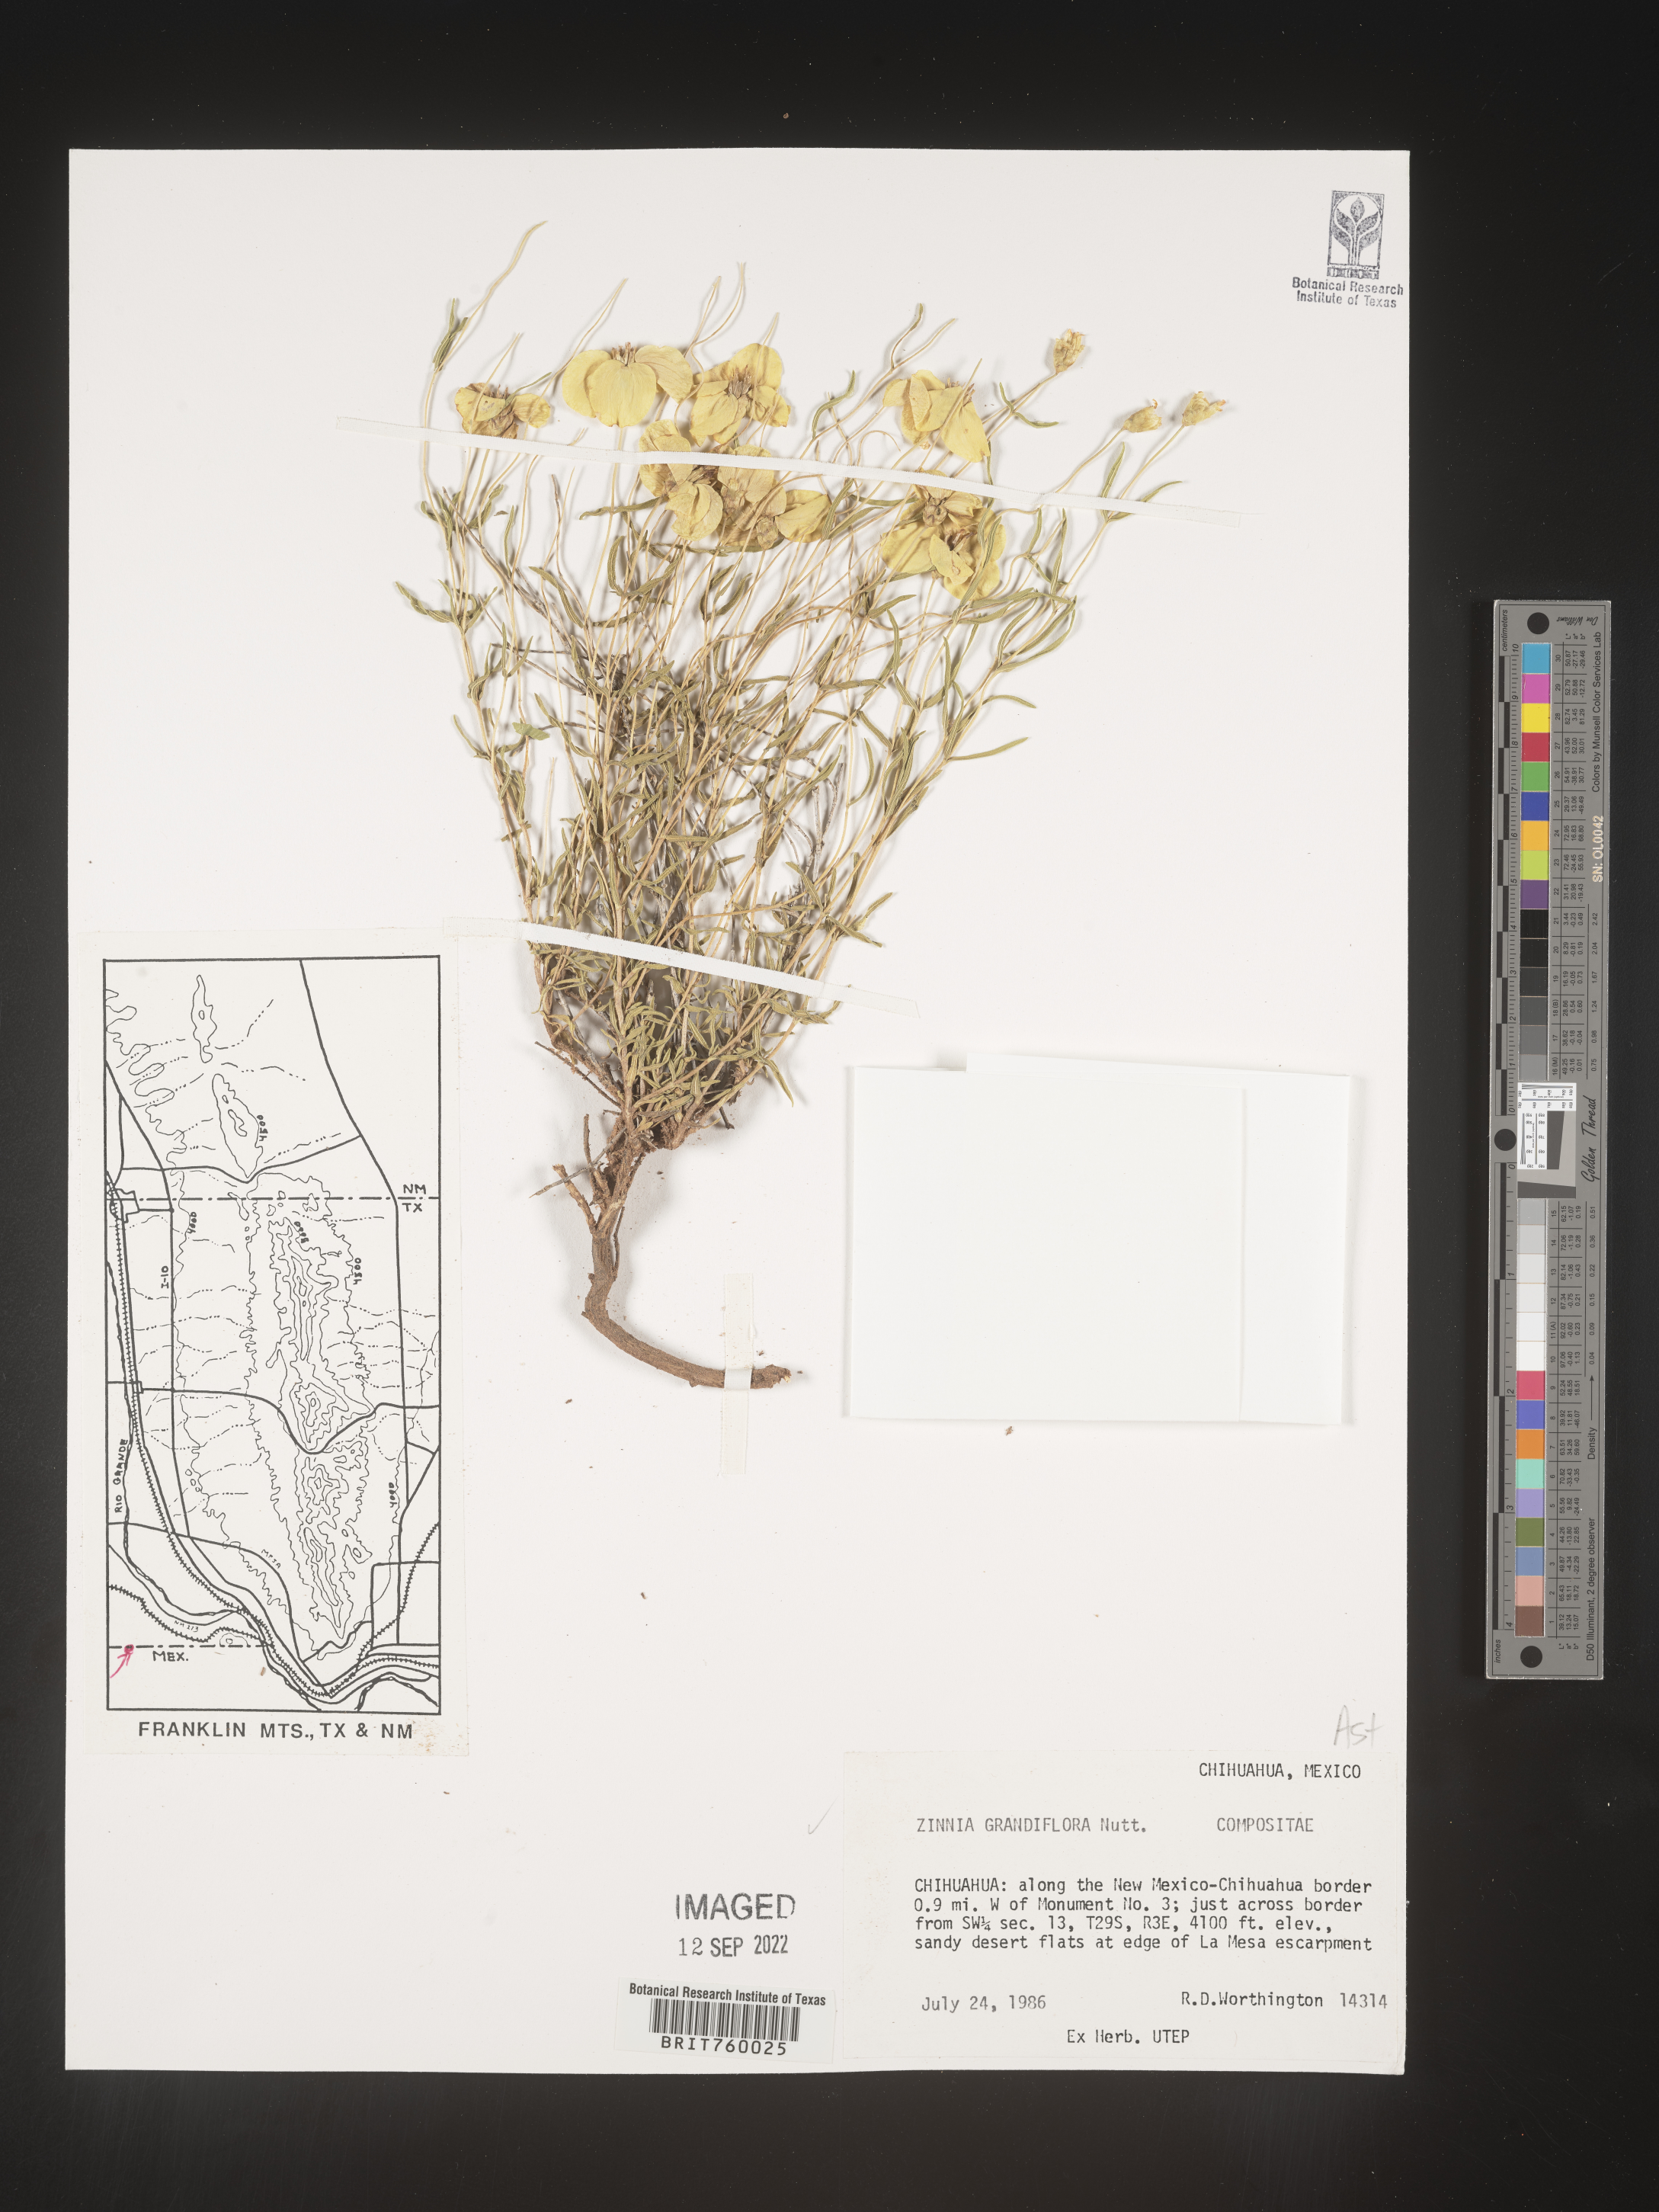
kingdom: Plantae
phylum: Tracheophyta
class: Magnoliopsida
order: Asterales
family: Asteraceae
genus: Zinnia
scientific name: Zinnia
